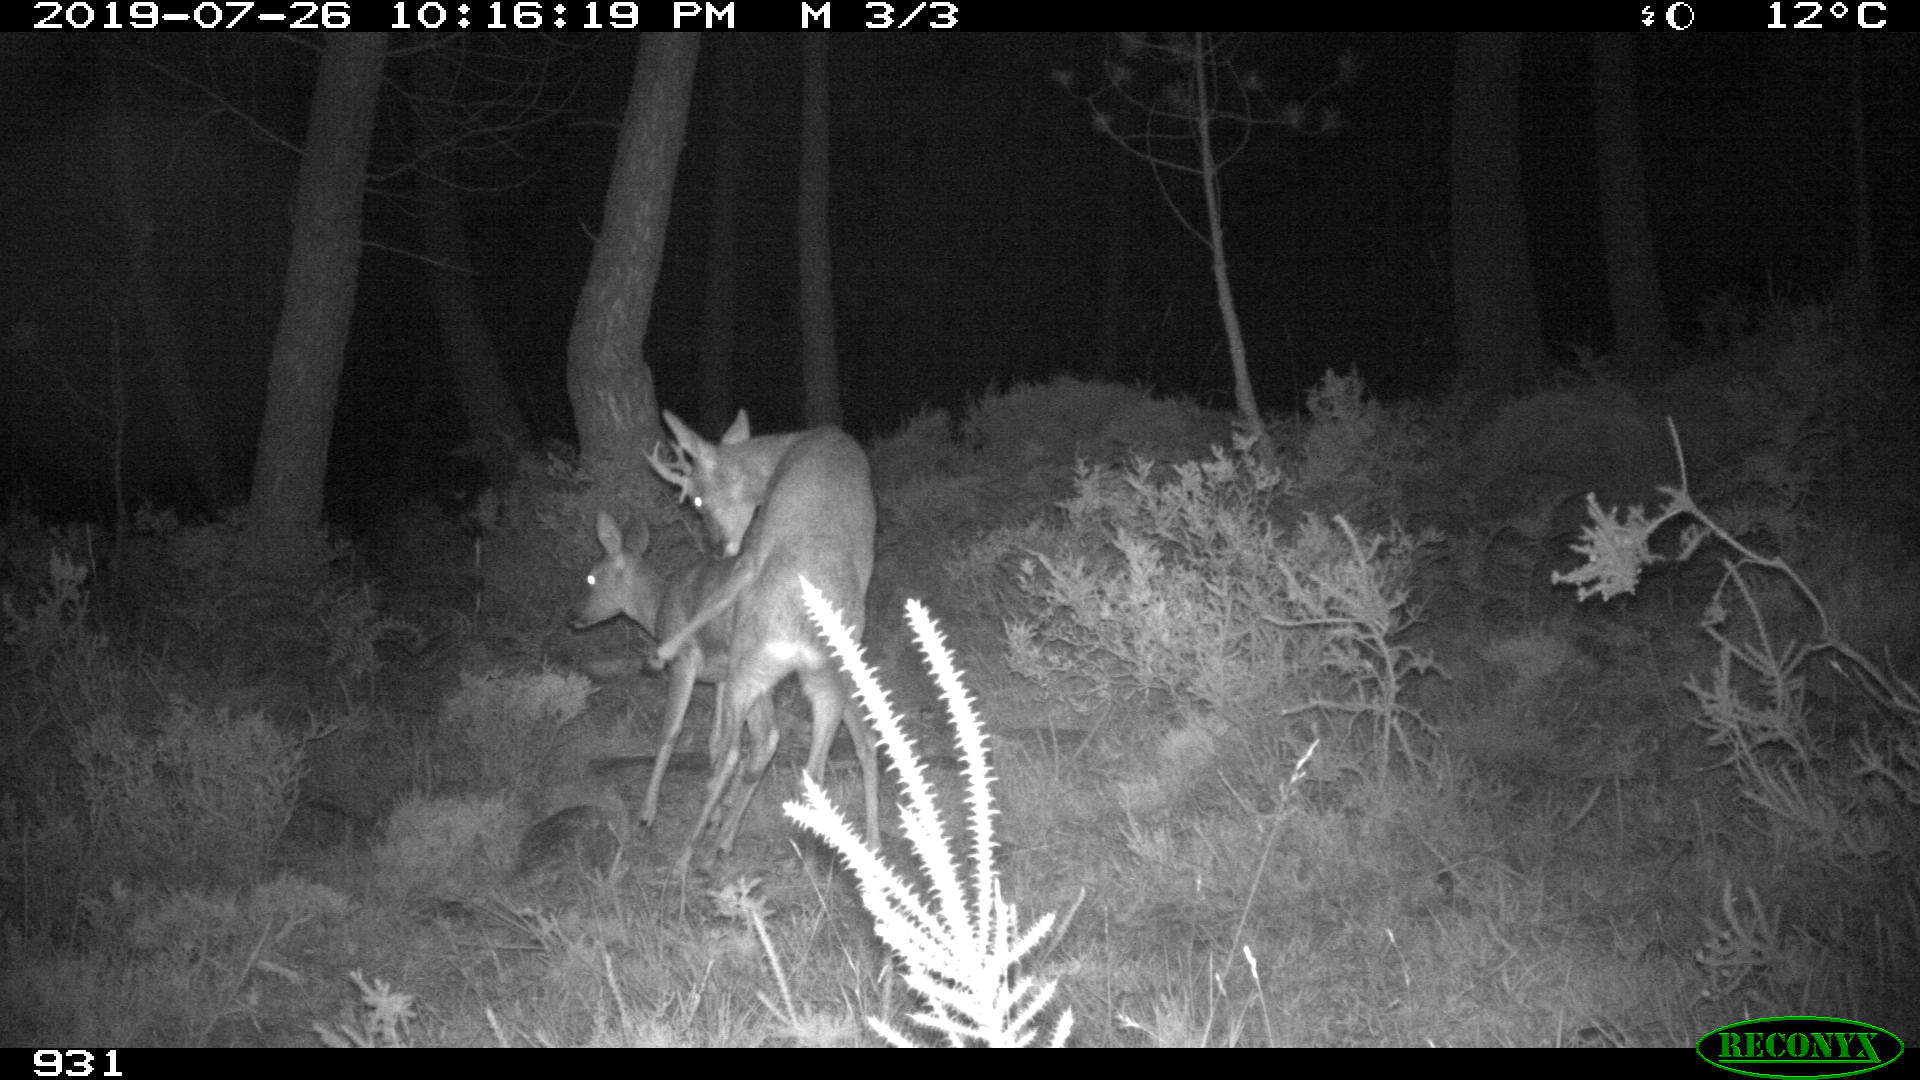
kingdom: Animalia
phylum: Chordata
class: Mammalia
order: Artiodactyla
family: Cervidae
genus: Capreolus
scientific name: Capreolus capreolus
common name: Western roe deer
